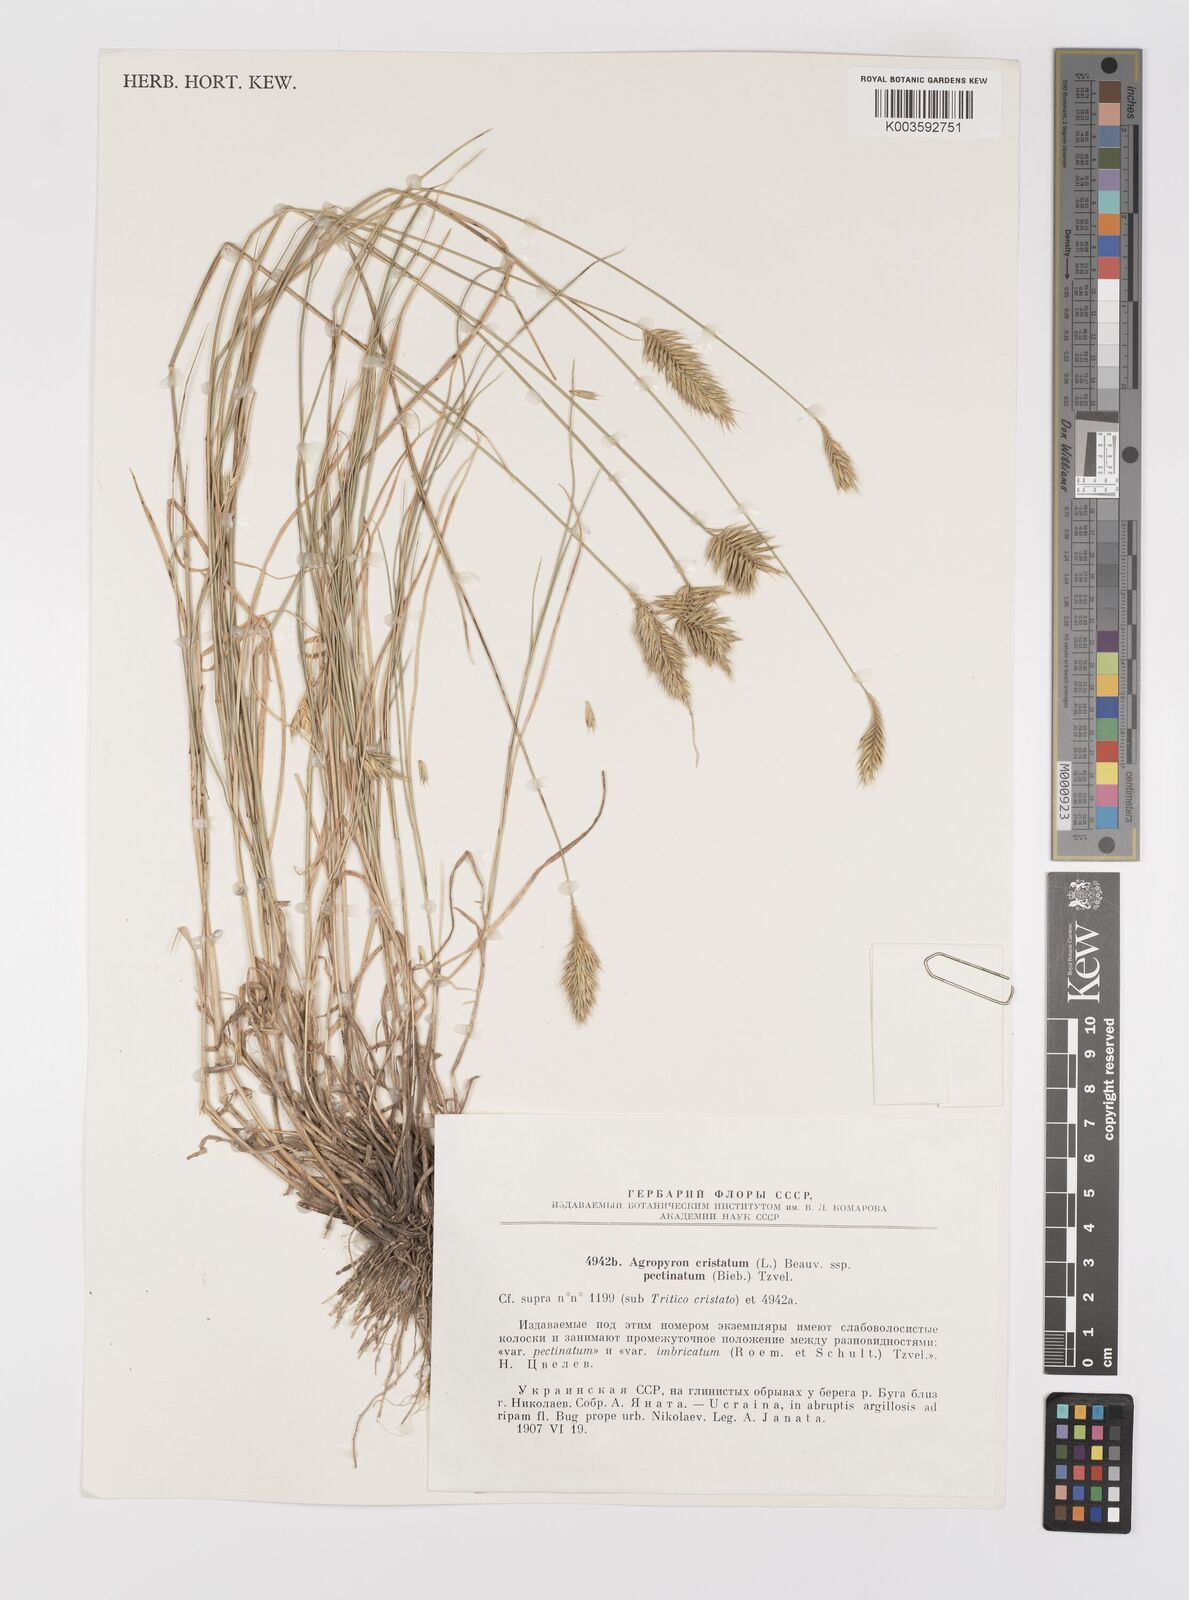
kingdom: Plantae
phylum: Tracheophyta
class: Liliopsida
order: Poales
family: Poaceae
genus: Agropyron
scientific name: Agropyron cristatum
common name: Crested wheatgrass
